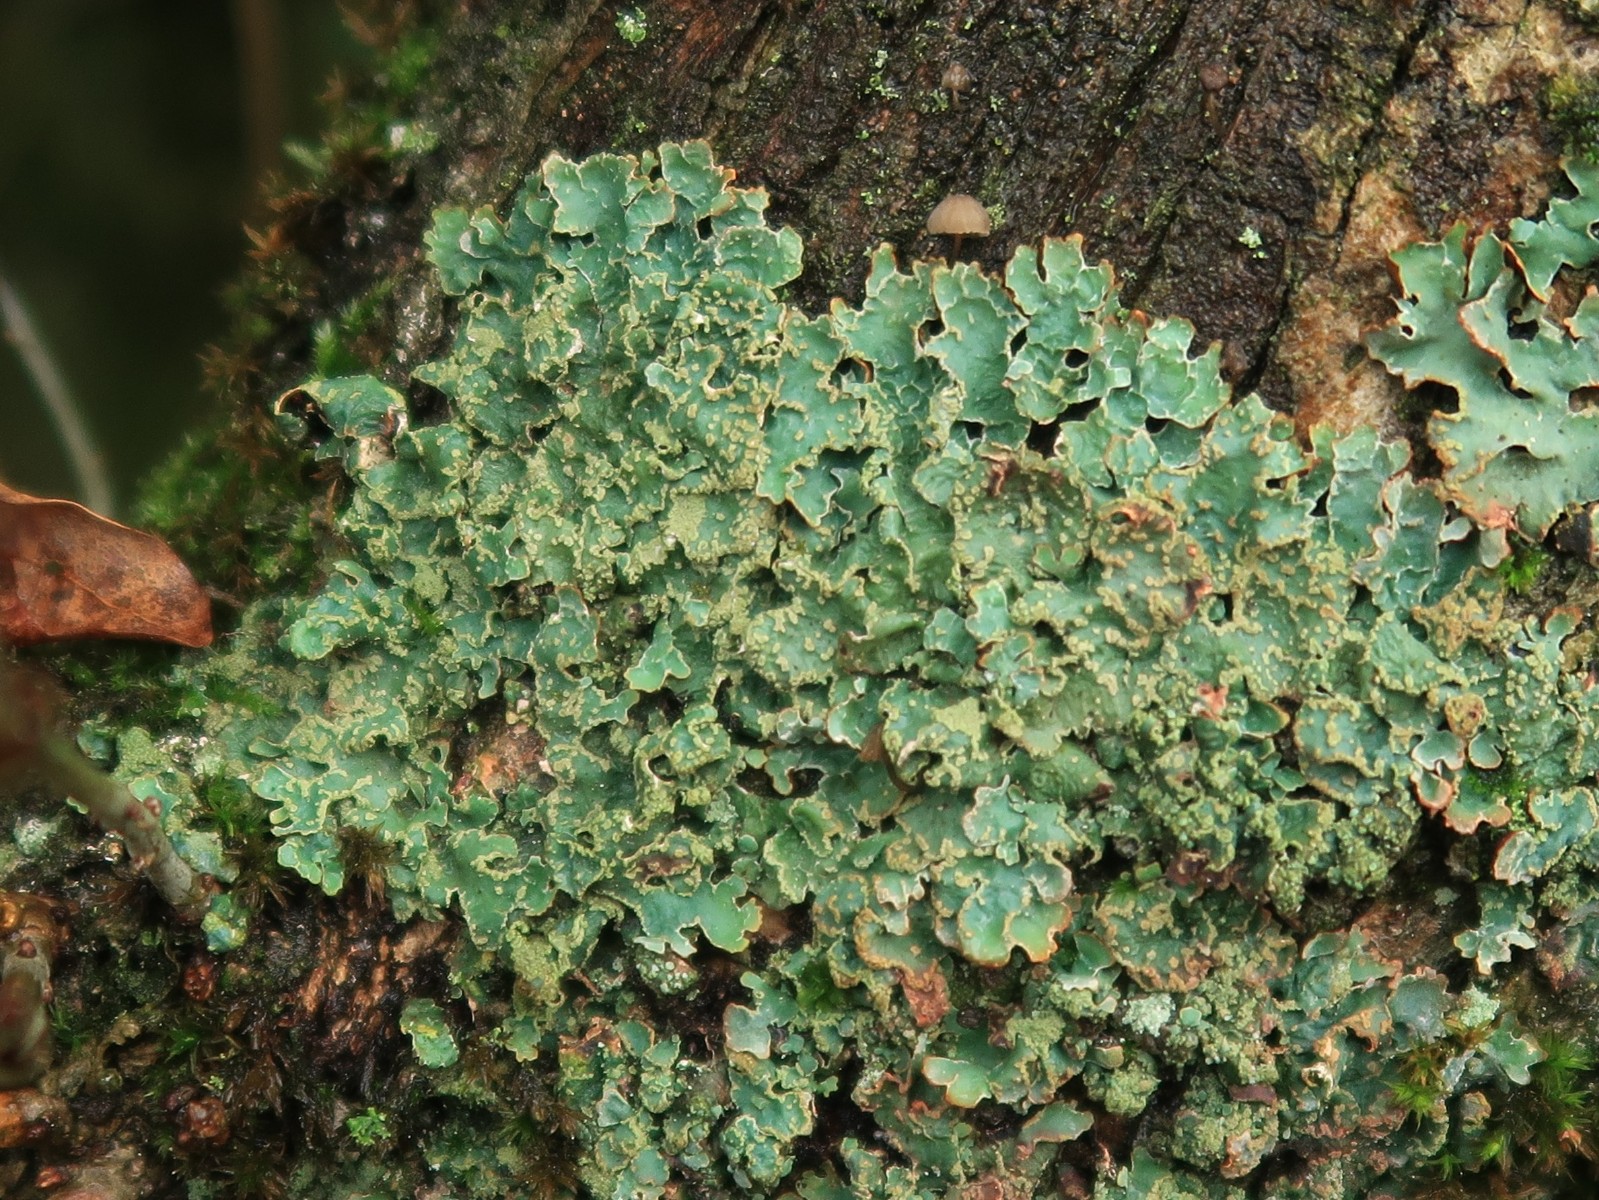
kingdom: Fungi
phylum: Ascomycota
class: Lecanoromycetes
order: Lecanorales
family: Parmeliaceae
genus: Parmelia
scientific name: Parmelia sulcata
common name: rynket skållav
